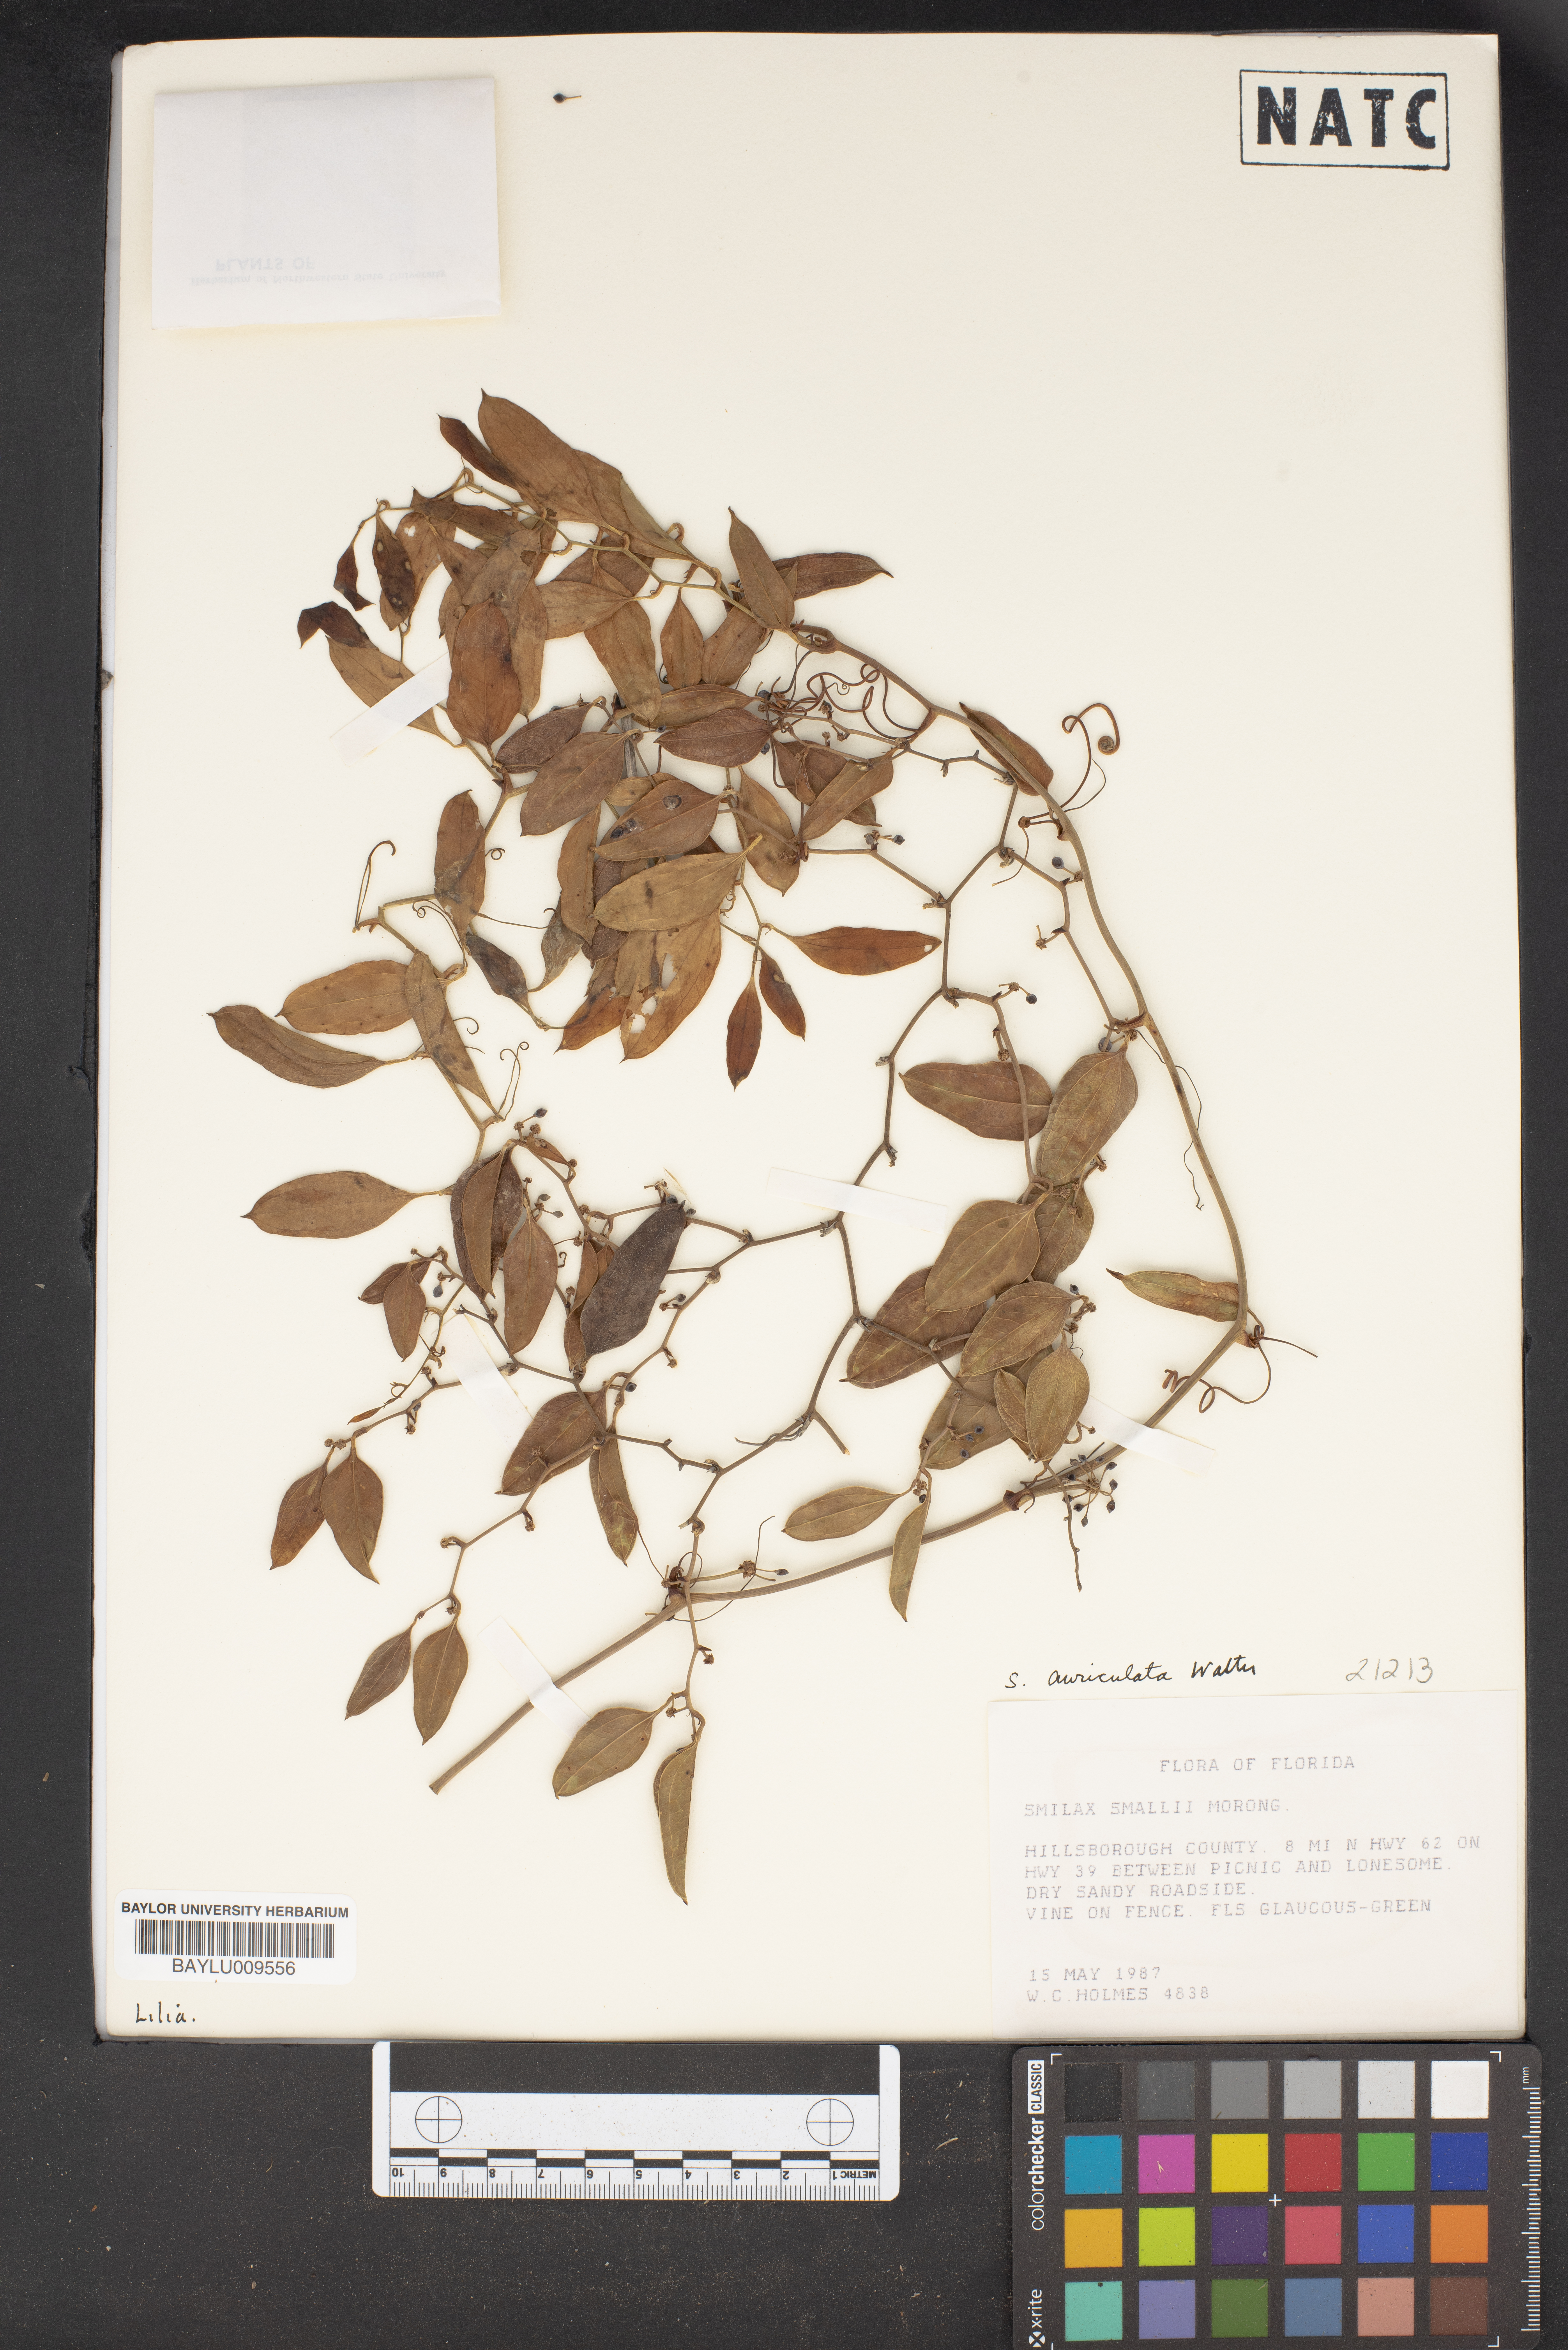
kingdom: Plantae
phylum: Tracheophyta
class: Liliopsida
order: Liliales
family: Smilacaceae
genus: Smilax
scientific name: Smilax maritima
